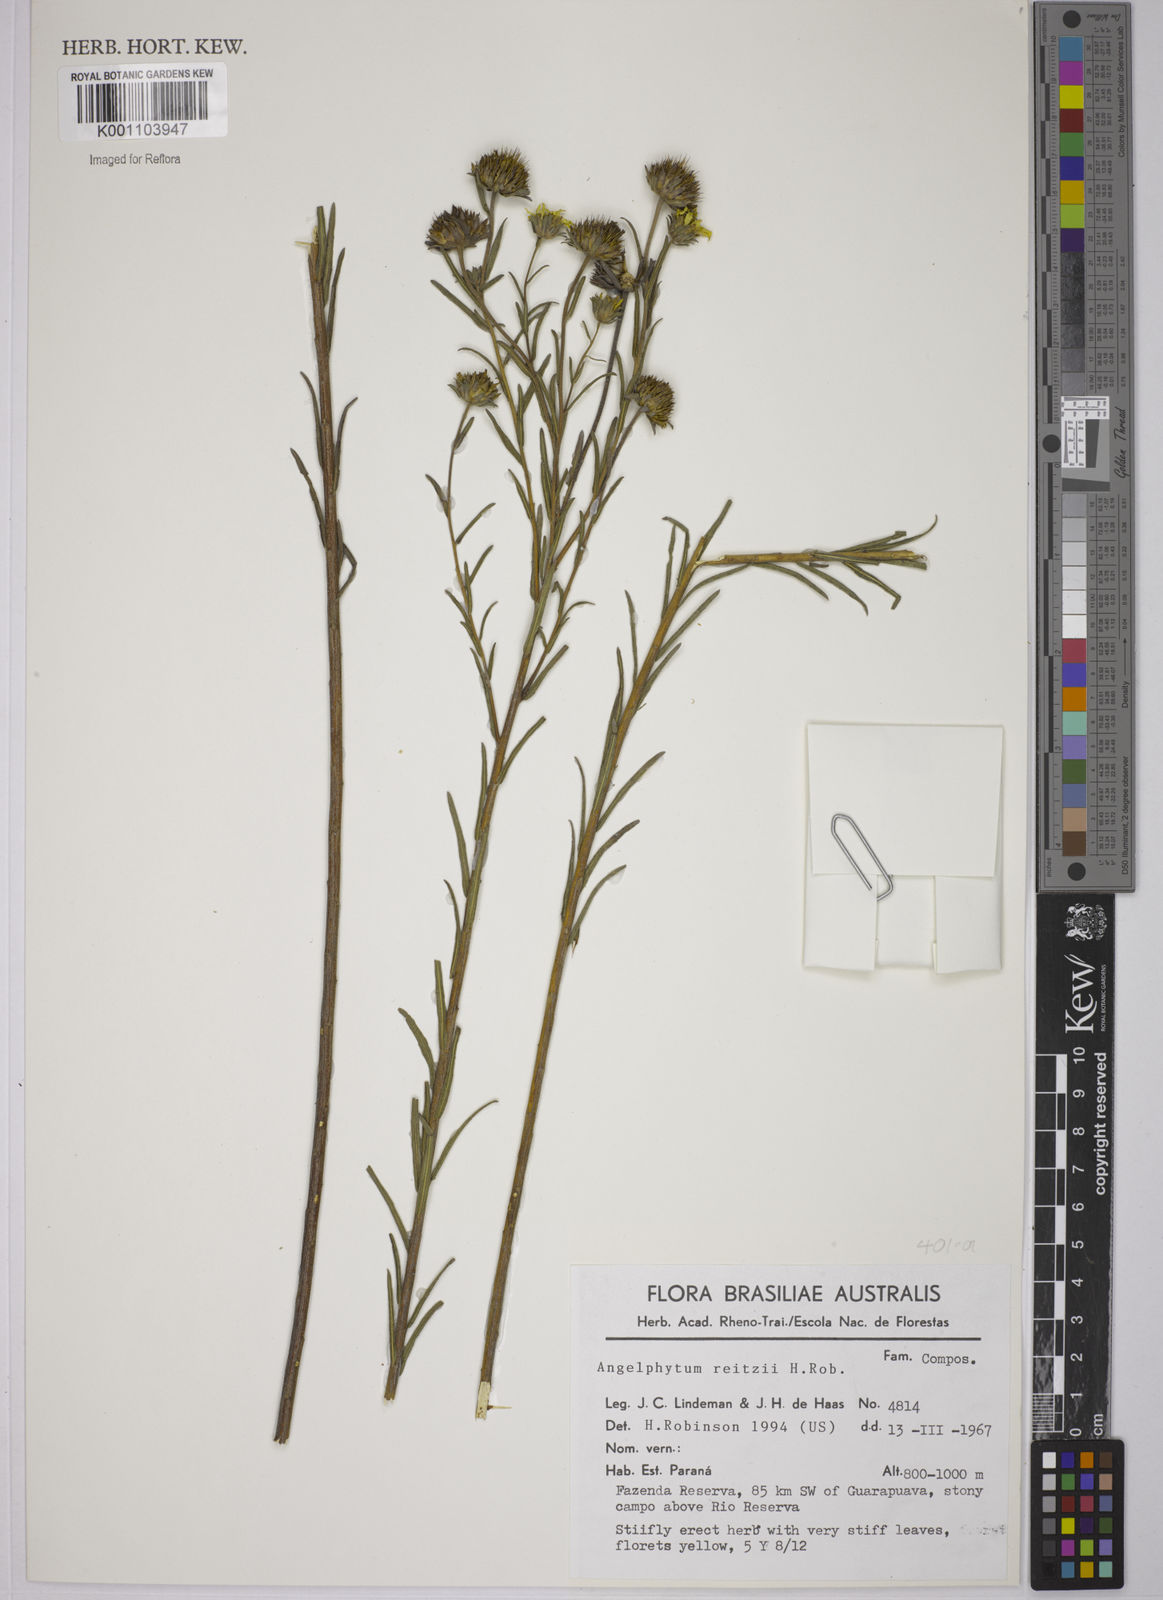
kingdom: Plantae
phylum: Tracheophyta
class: Magnoliopsida
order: Asterales
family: Asteraceae
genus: Dimerostemma
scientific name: Dimerostemma reitzii
